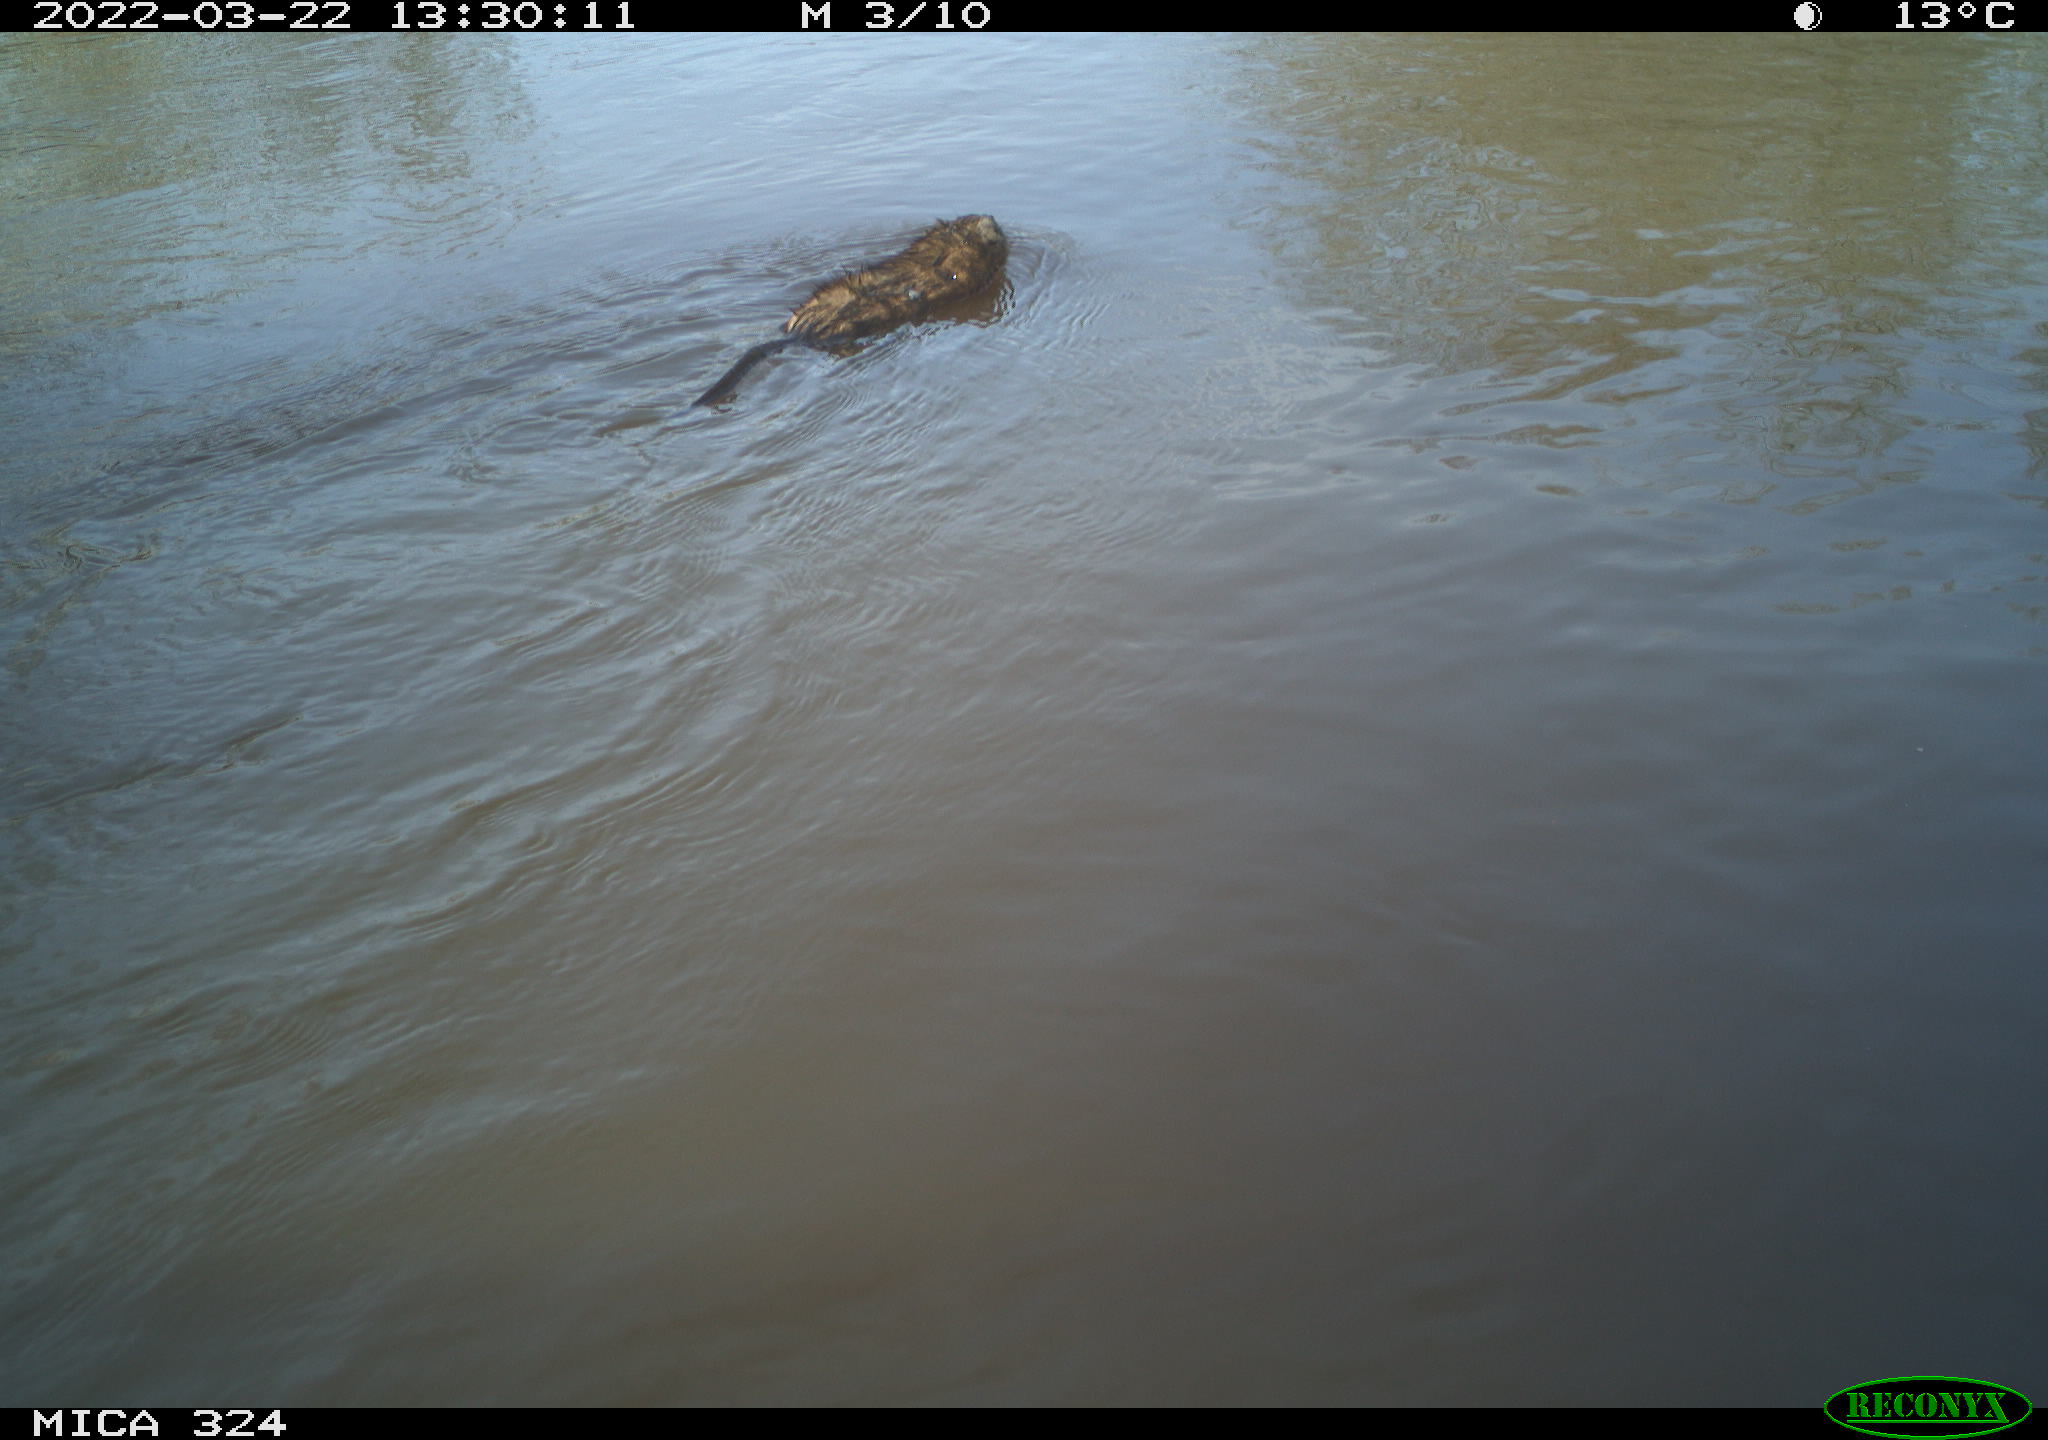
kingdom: Animalia
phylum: Chordata
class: Mammalia
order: Rodentia
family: Cricetidae
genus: Ondatra
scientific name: Ondatra zibethicus
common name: Muskrat
